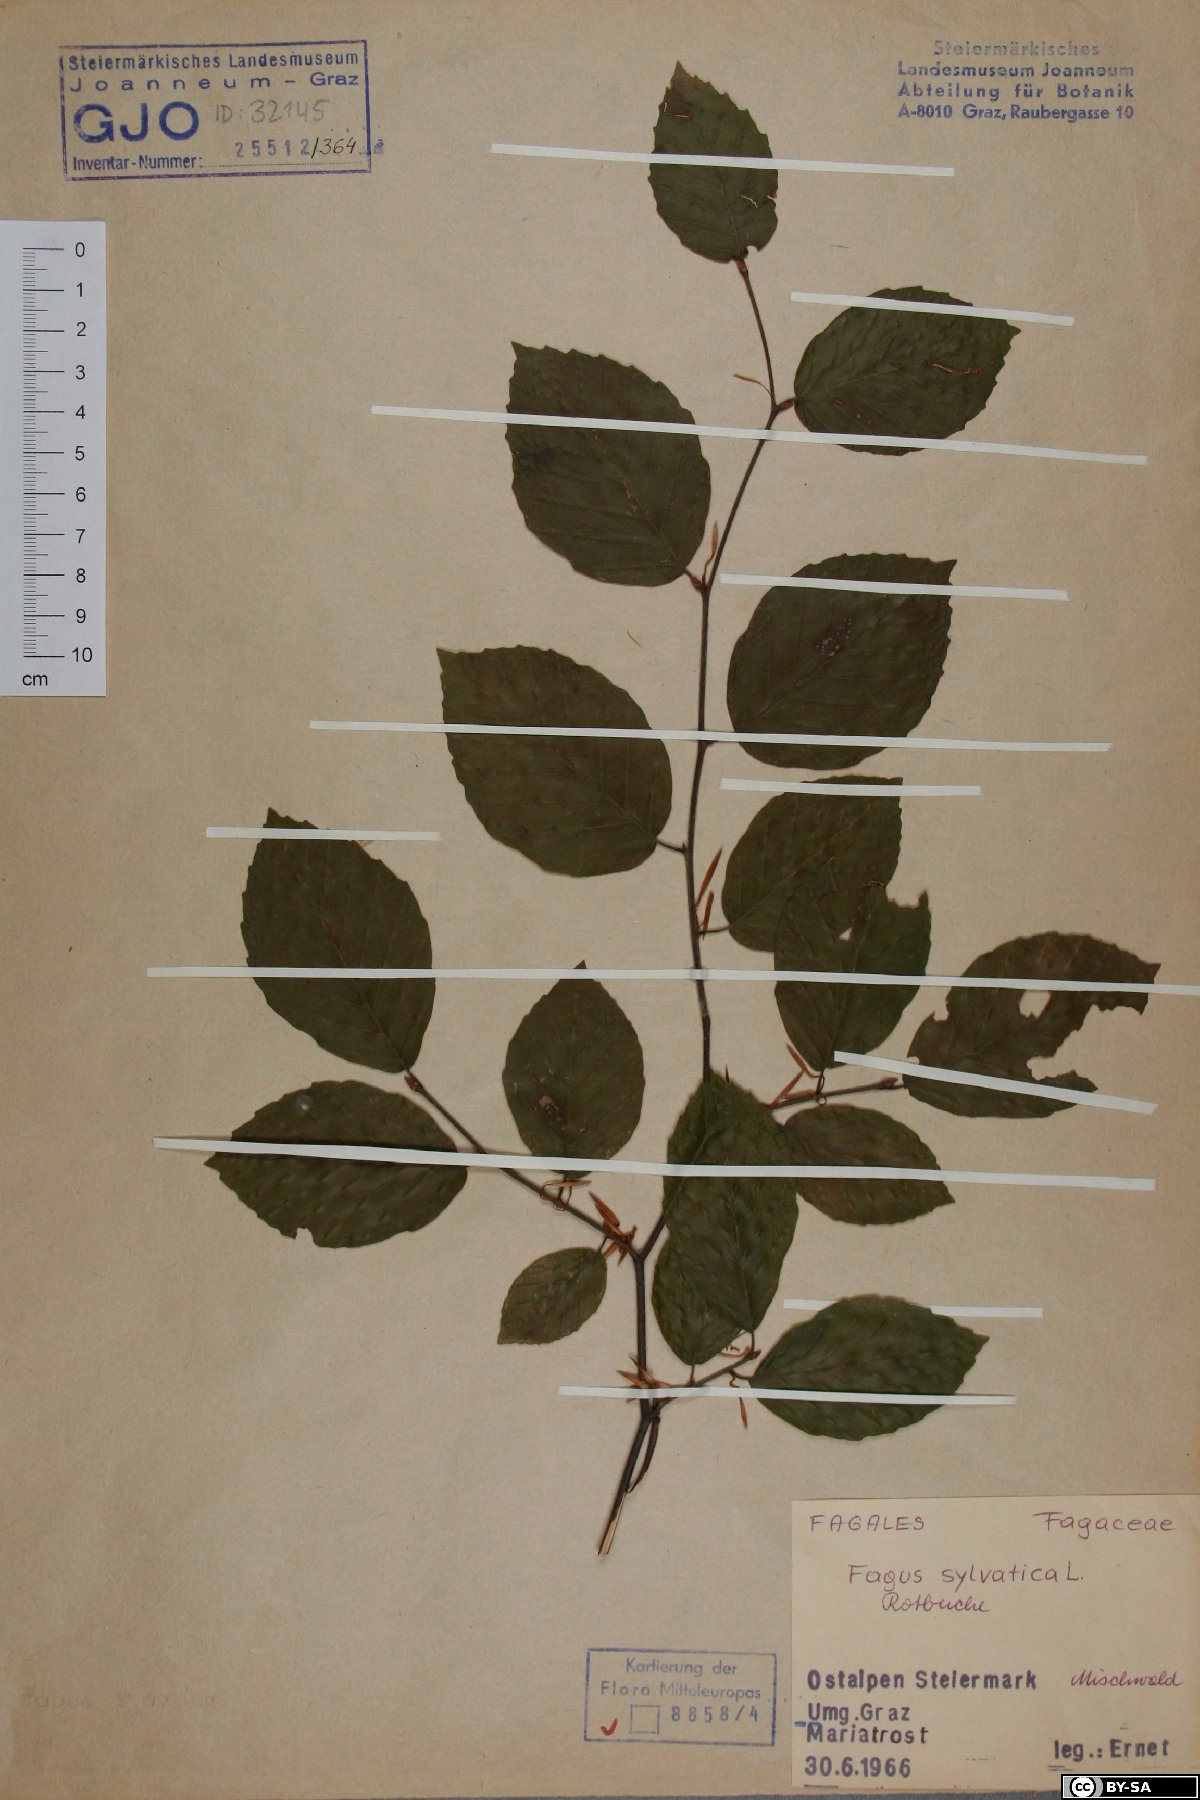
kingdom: Plantae
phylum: Tracheophyta
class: Magnoliopsida
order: Fagales
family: Fagaceae
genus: Fagus
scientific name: Fagus sylvatica
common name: Beech
